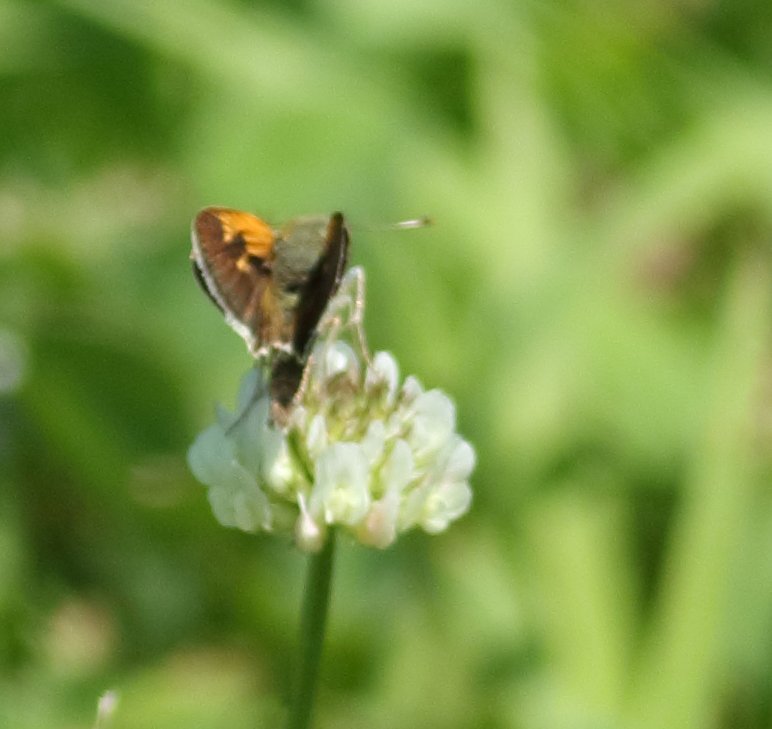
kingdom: Animalia
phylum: Arthropoda
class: Insecta
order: Lepidoptera
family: Hesperiidae
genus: Euphyes
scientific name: Euphyes
